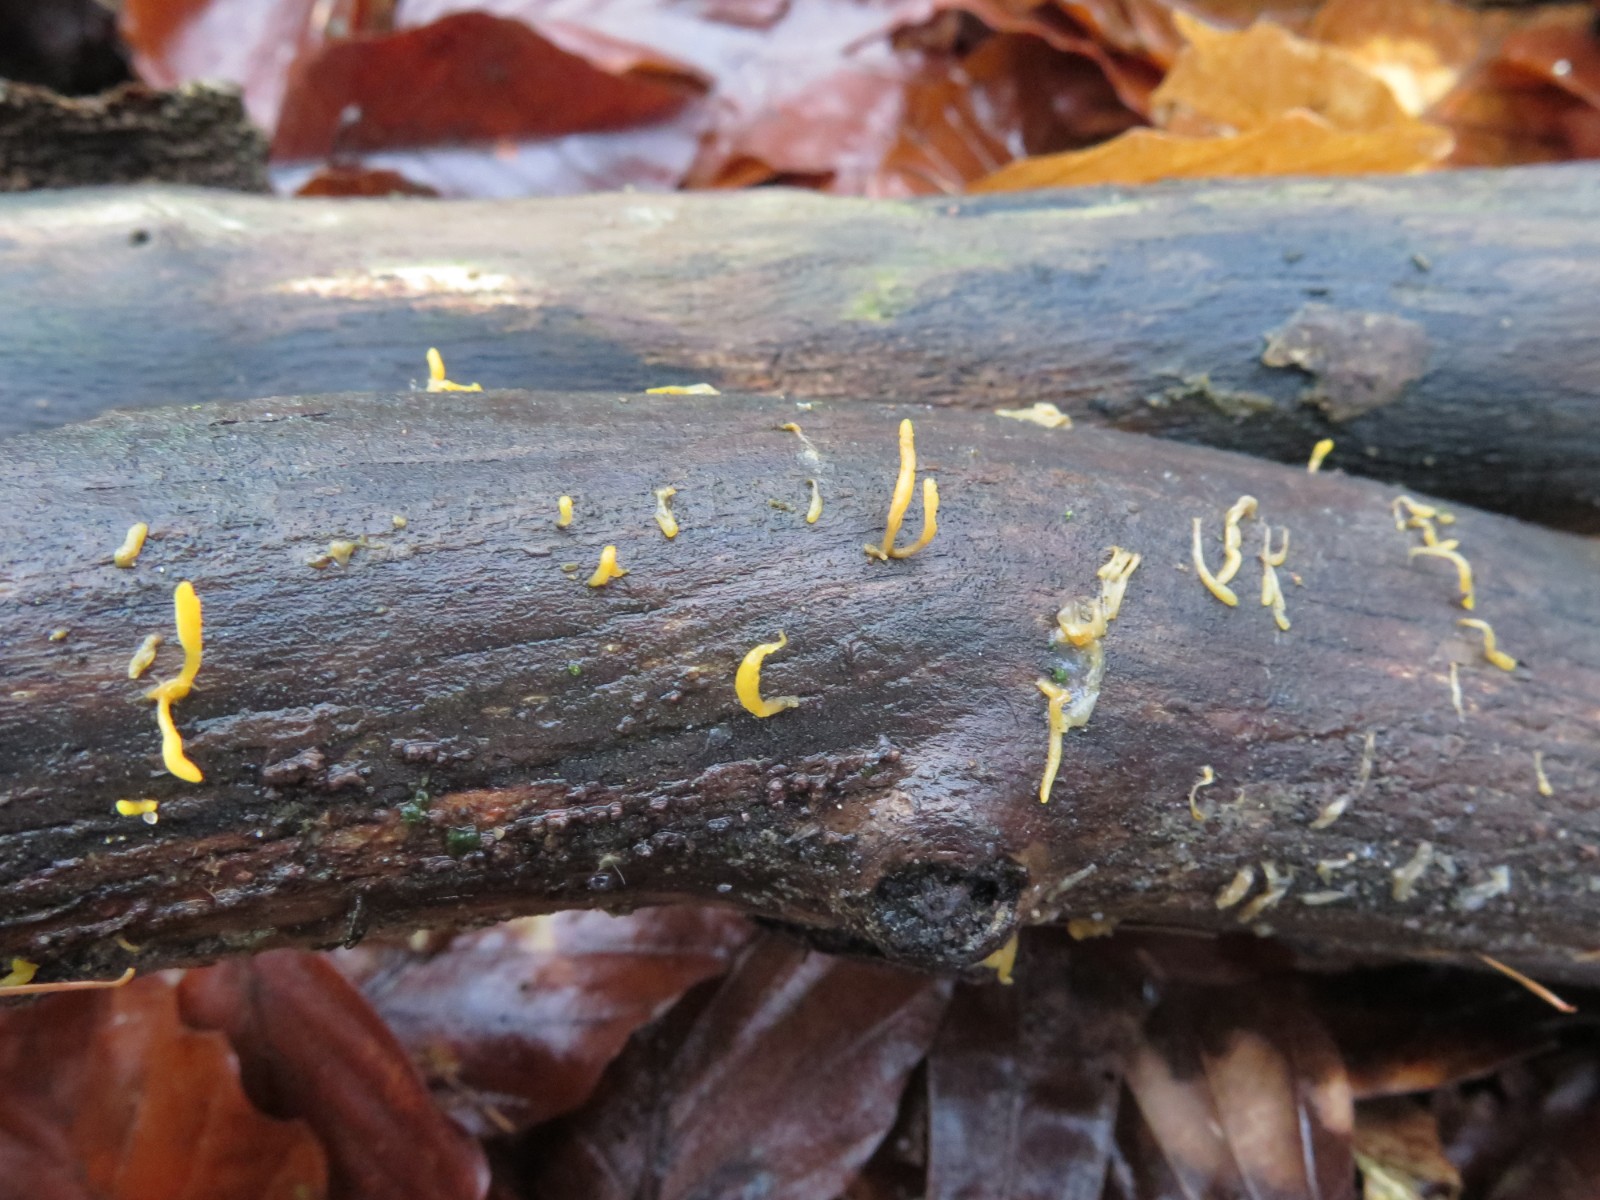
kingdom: Fungi
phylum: Basidiomycota
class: Dacrymycetes
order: Dacrymycetales
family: Dacrymycetaceae
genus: Calocera
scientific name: Calocera cornea
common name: liden guldgaffel
